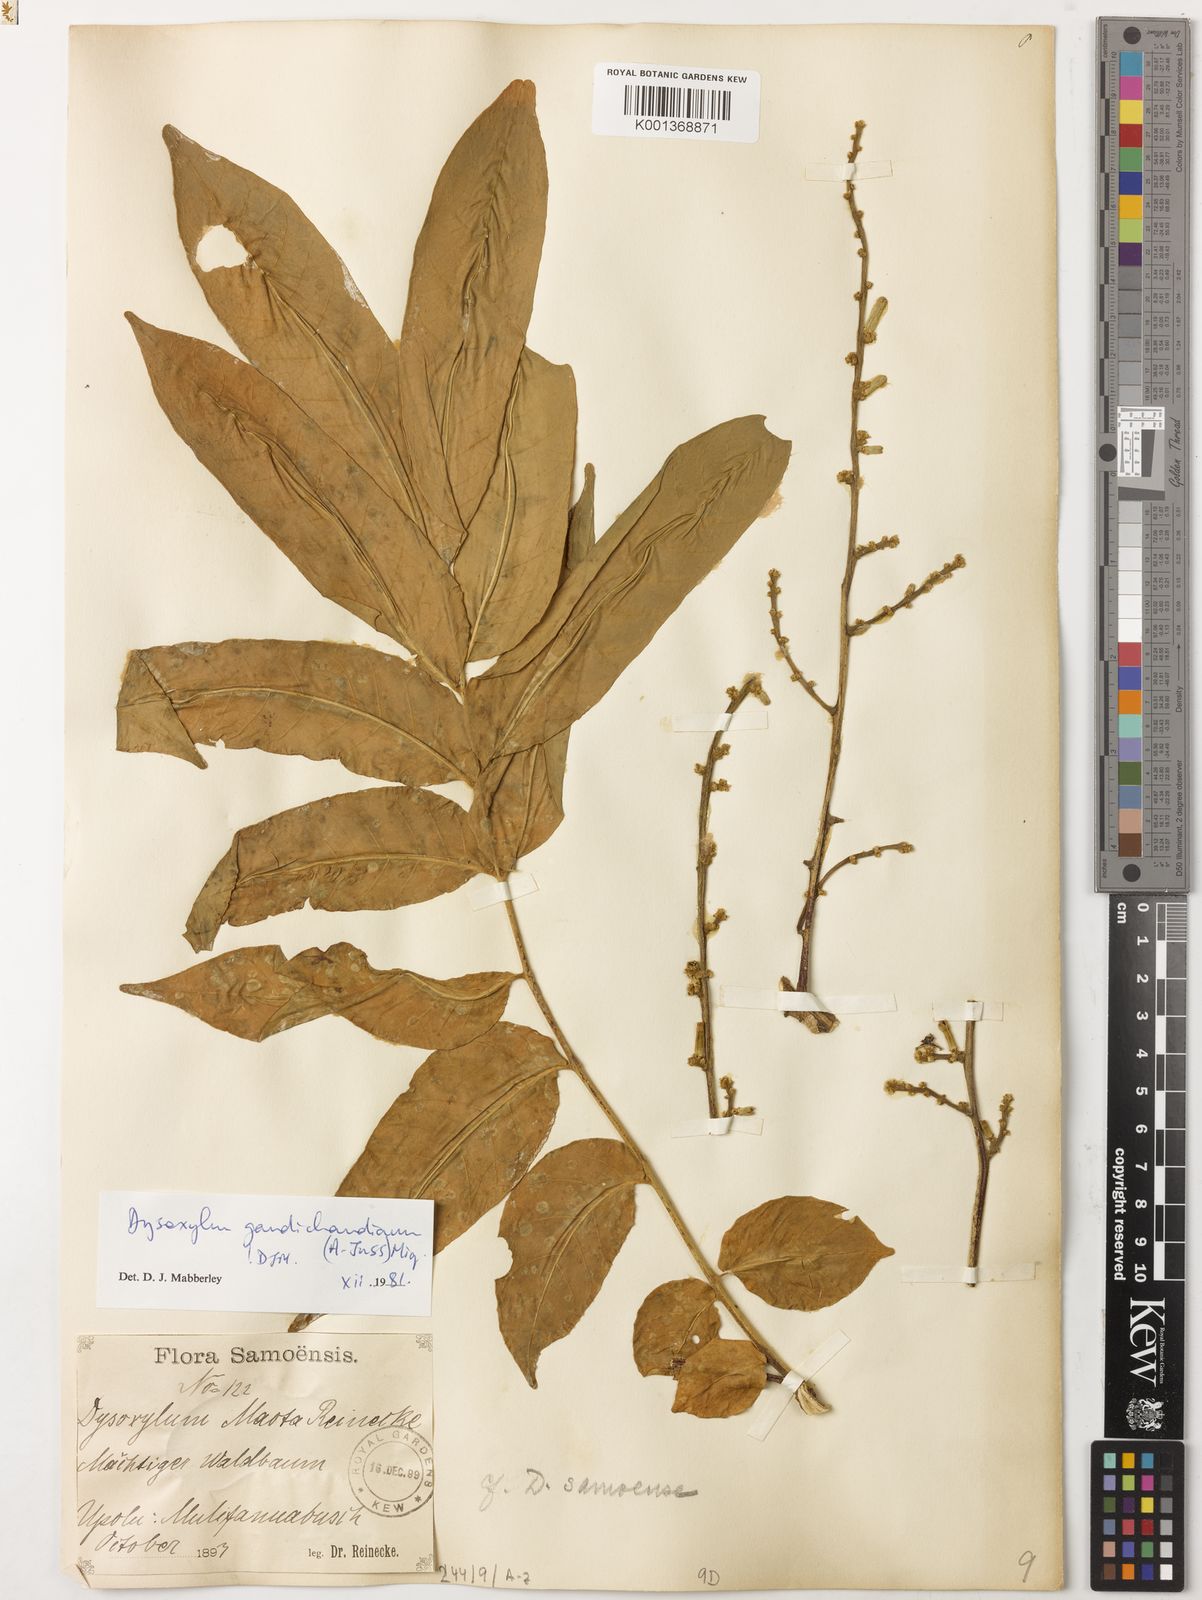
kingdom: Plantae
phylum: Tracheophyta
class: Magnoliopsida
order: Sapindales
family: Meliaceae
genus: Didymocheton
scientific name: Didymocheton gaudichaudianus
